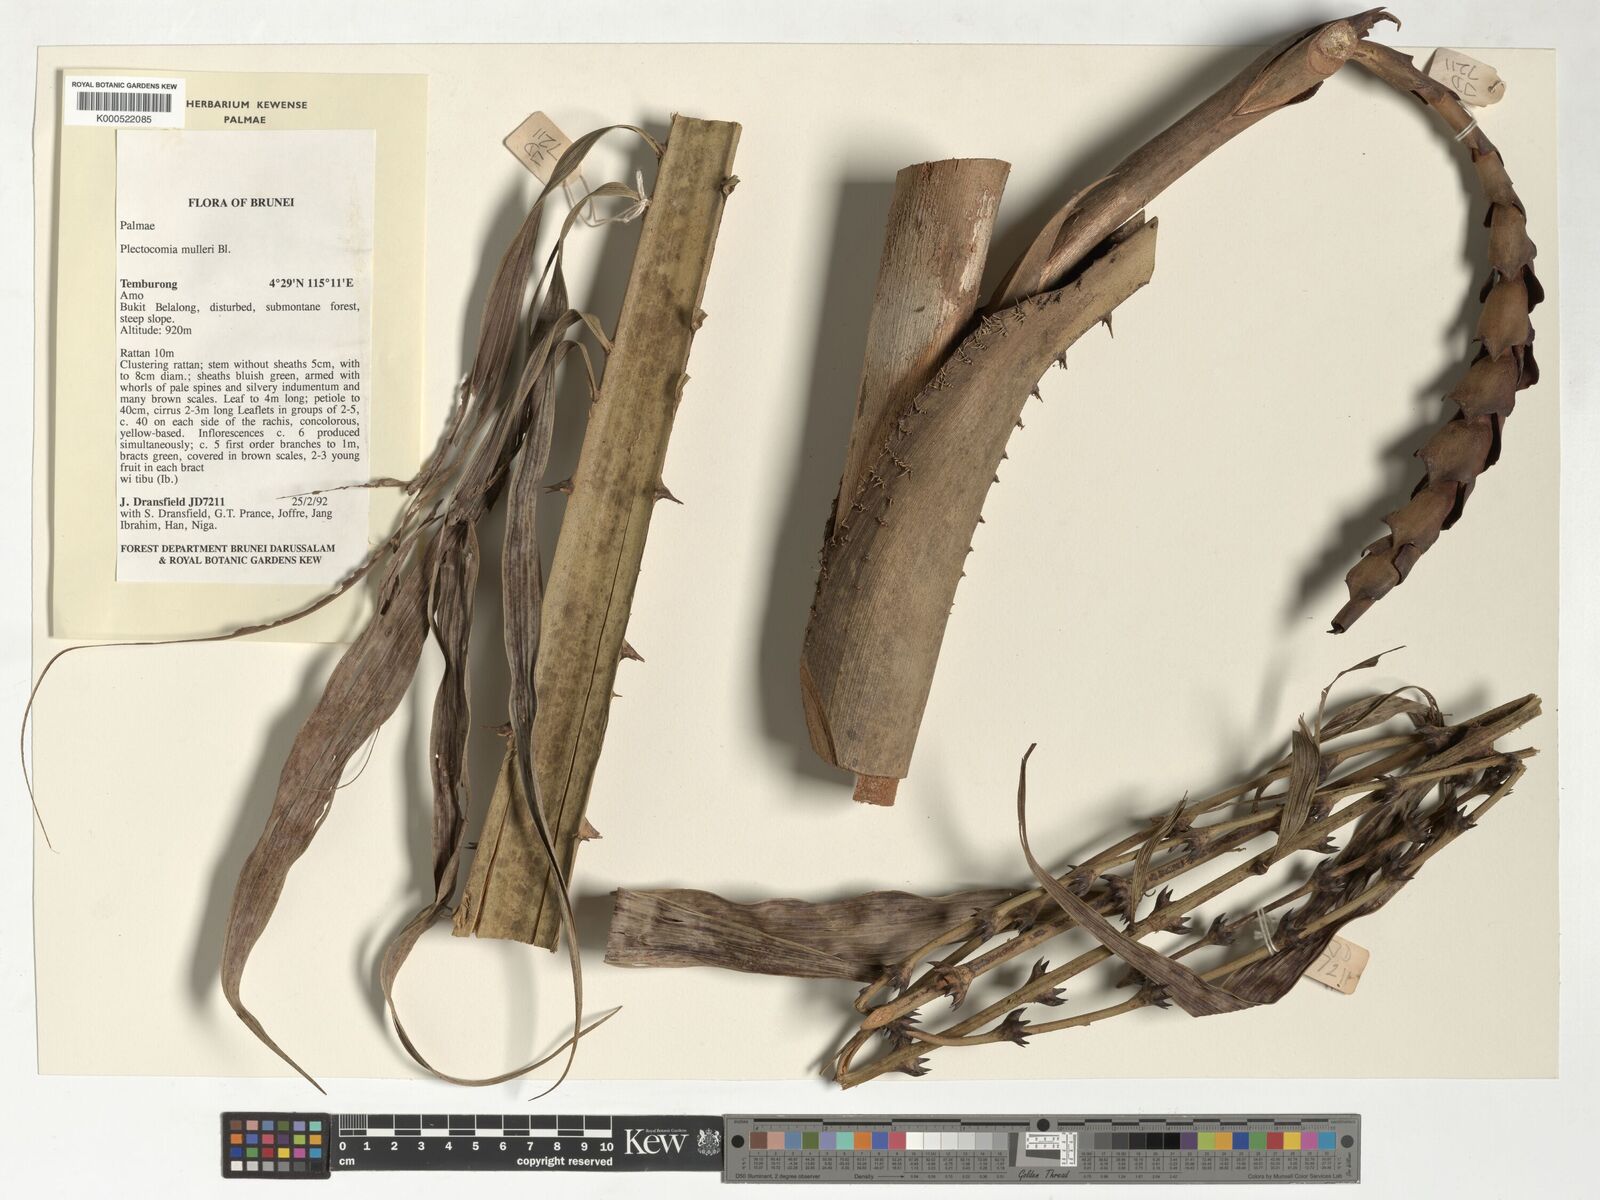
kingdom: Plantae
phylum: Tracheophyta
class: Liliopsida
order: Arecales
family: Arecaceae
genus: Plectocomia
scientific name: Plectocomia mulleri
